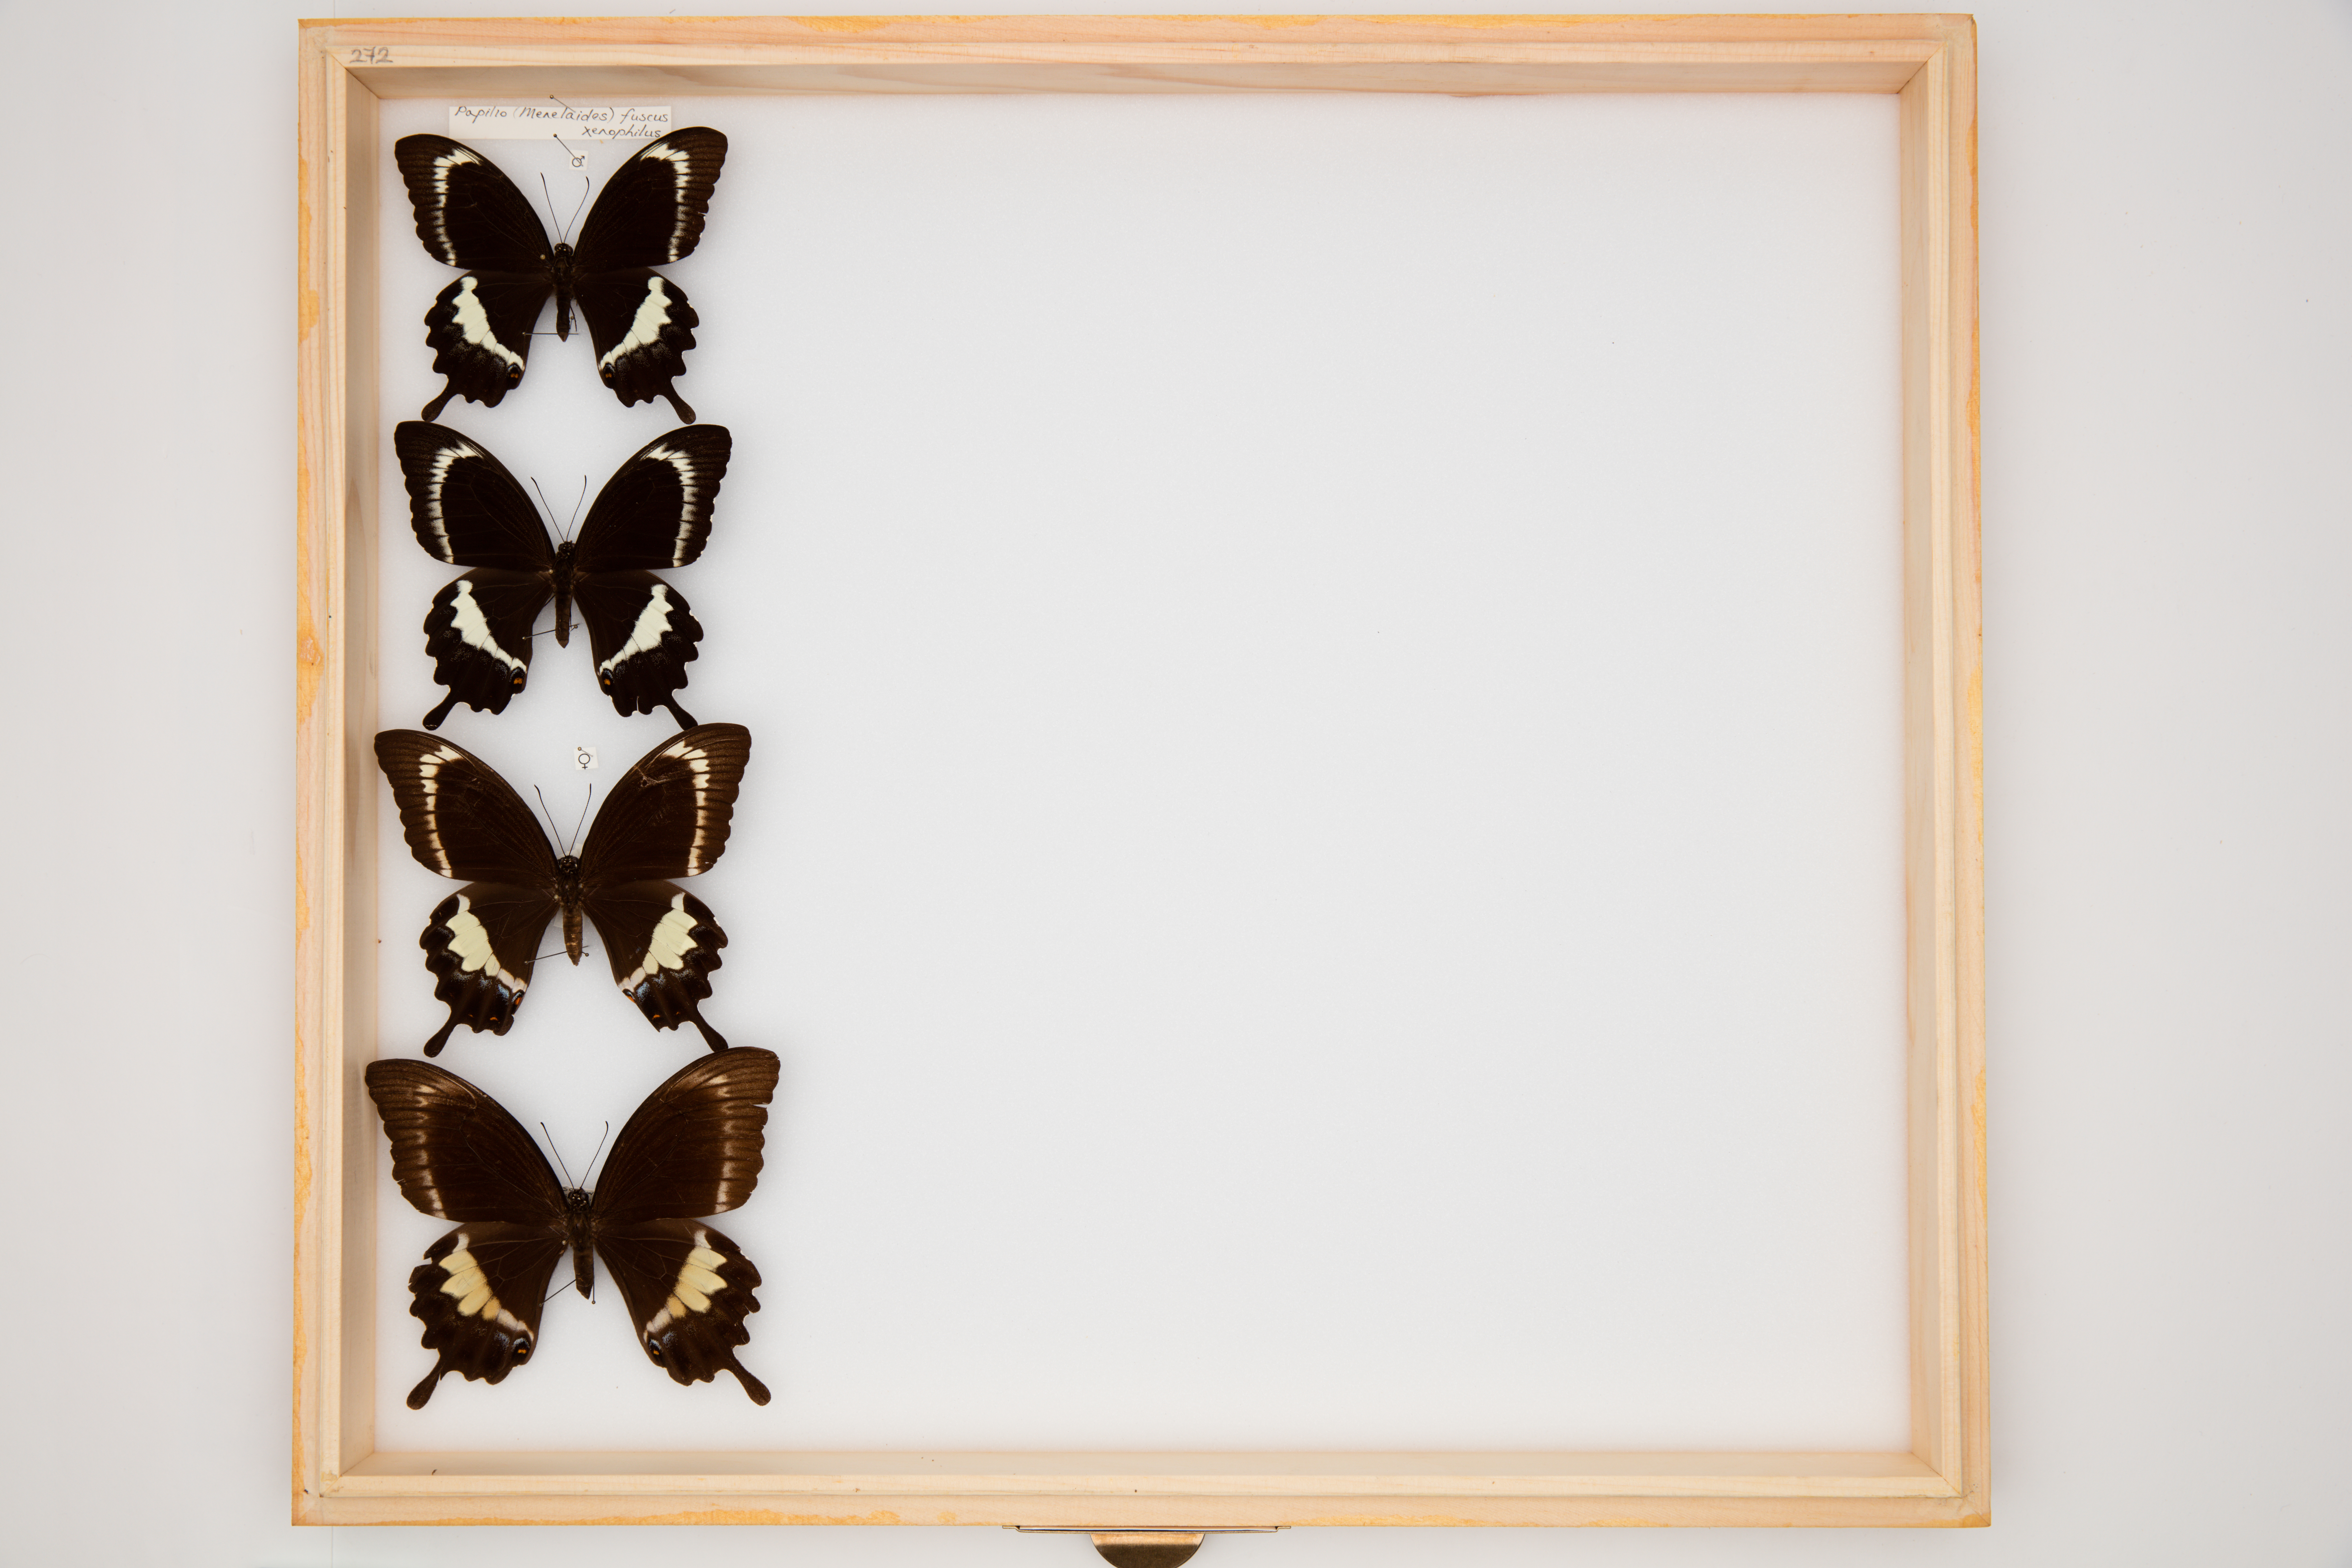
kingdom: Animalia
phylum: Arthropoda
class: Insecta
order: Lepidoptera
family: Papilionidae
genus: Papilio
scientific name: Papilio fuscus
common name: Fuscous swallowtail
